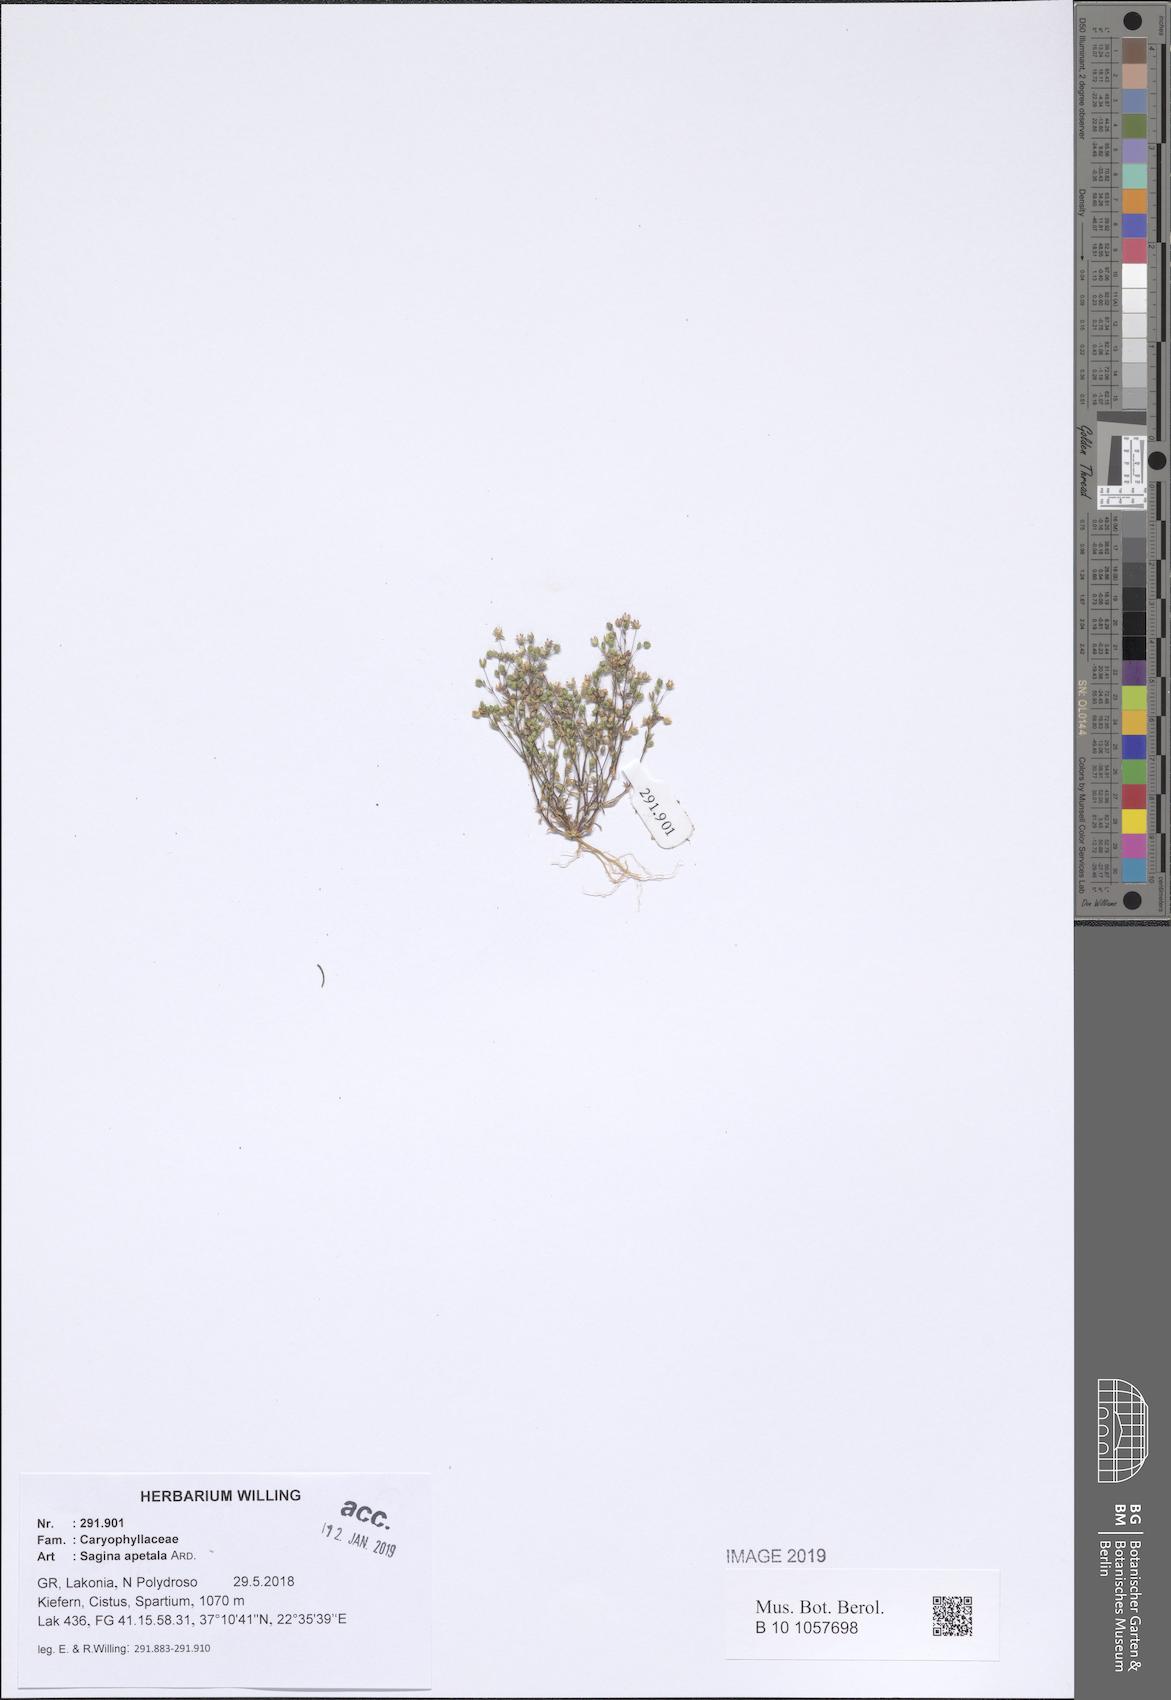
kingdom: Plantae
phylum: Tracheophyta
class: Magnoliopsida
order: Caryophyllales
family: Caryophyllaceae
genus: Sagina
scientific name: Sagina apetala
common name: Annual pearlwort
